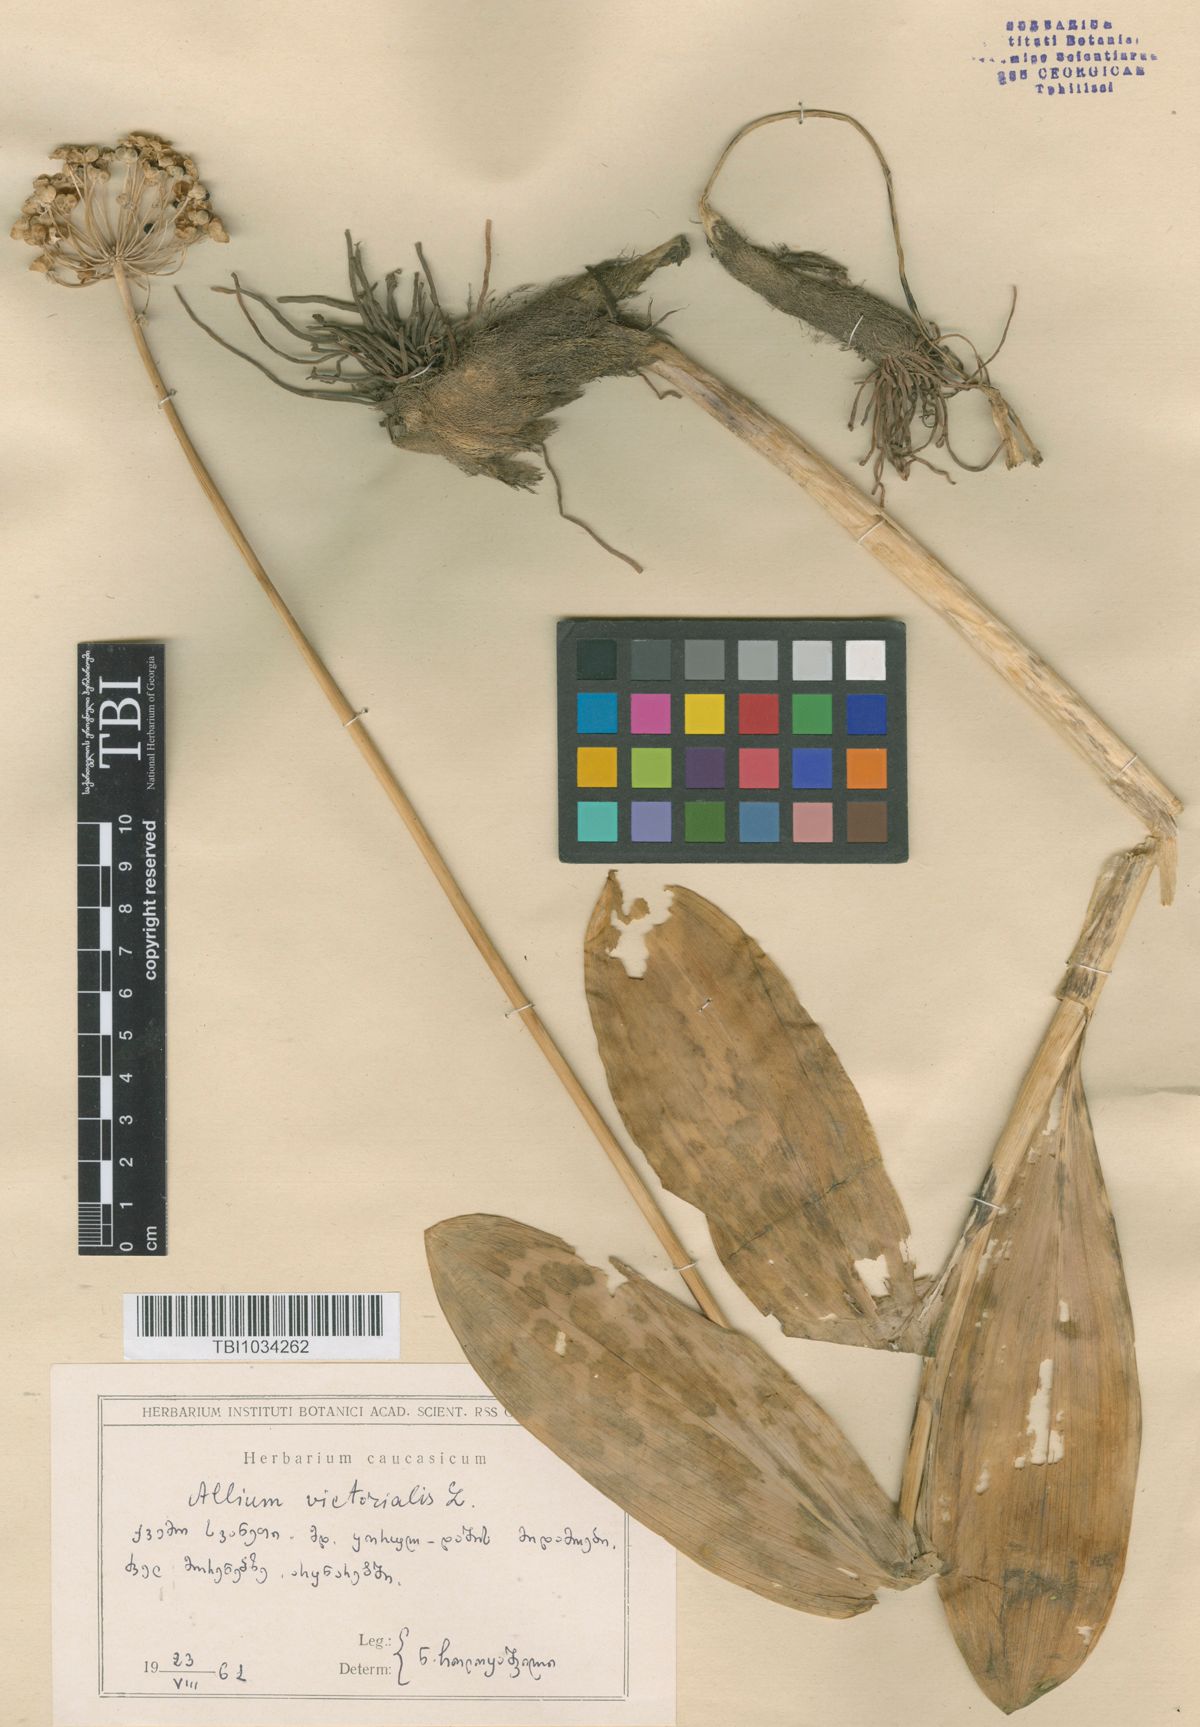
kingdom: Plantae
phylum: Tracheophyta
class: Liliopsida
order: Asparagales
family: Amaryllidaceae
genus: Allium
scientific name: Allium victorialis
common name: Alpine leek
